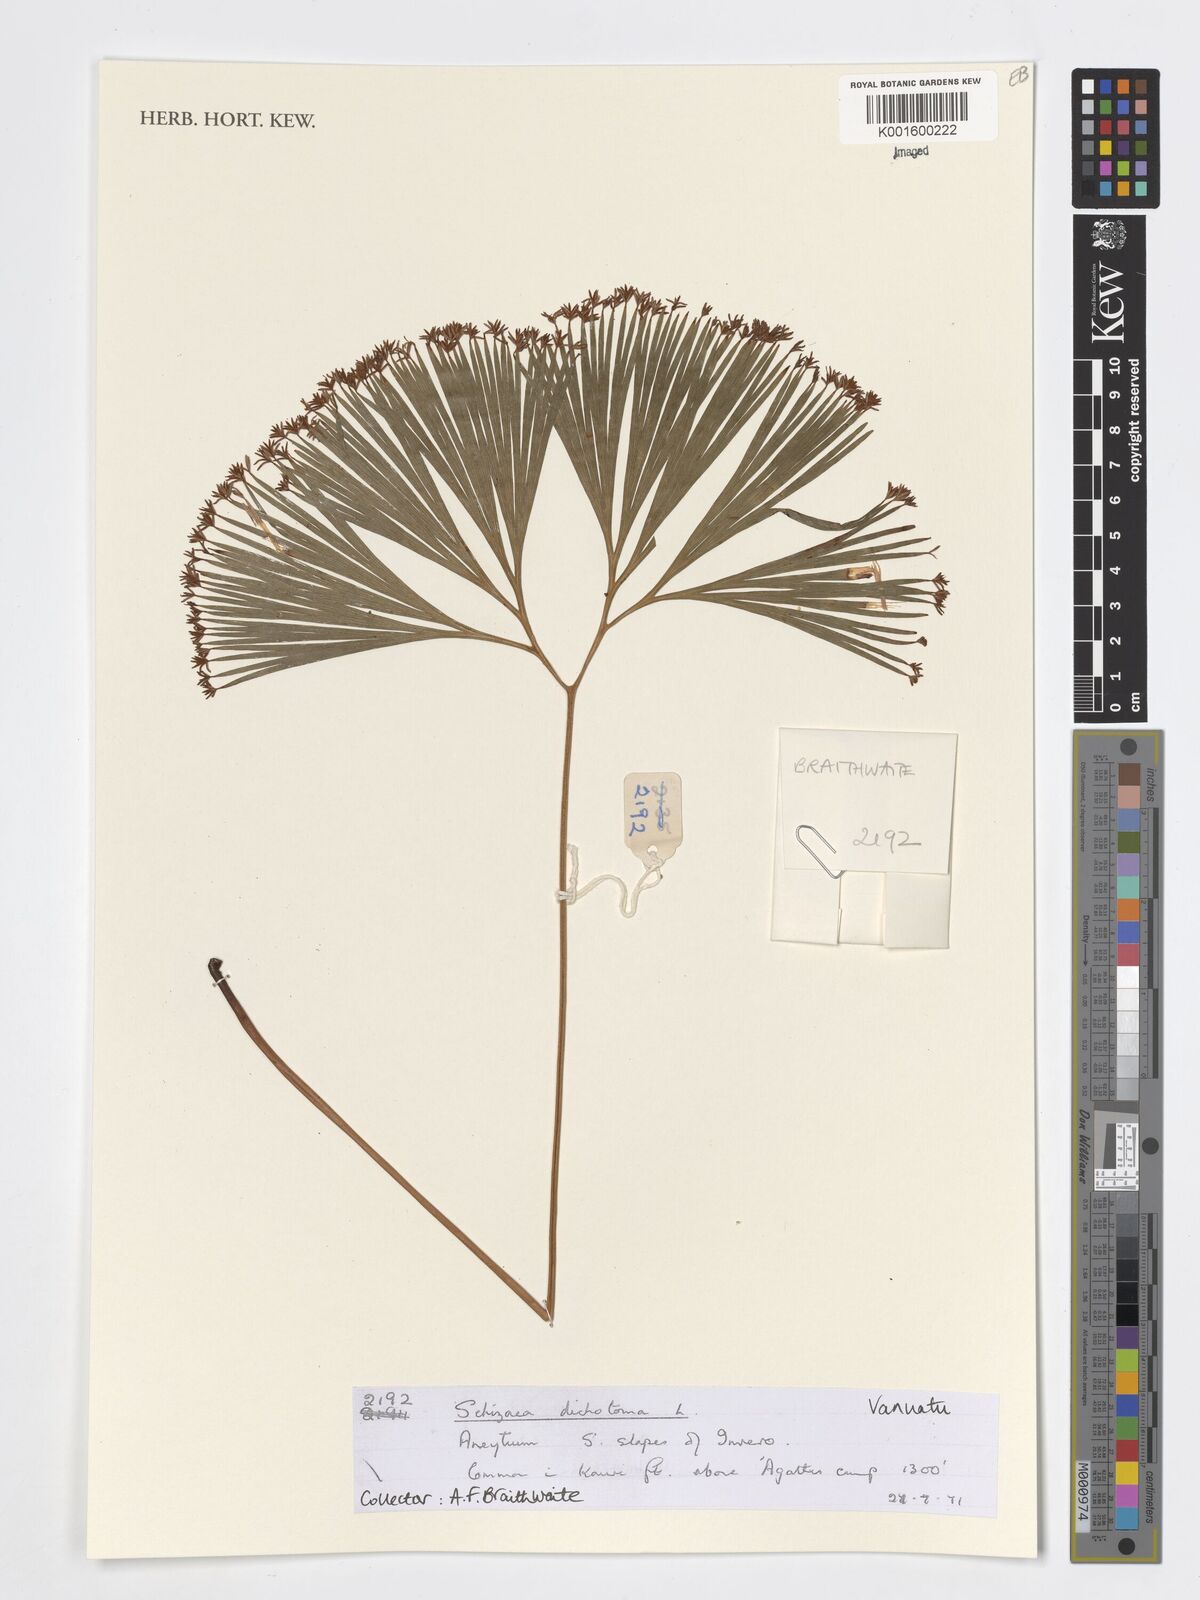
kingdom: Plantae
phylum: Tracheophyta
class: Polypodiopsida
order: Schizaeales
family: Schizaeaceae
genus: Schizaea
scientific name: Schizaea dichotoma
